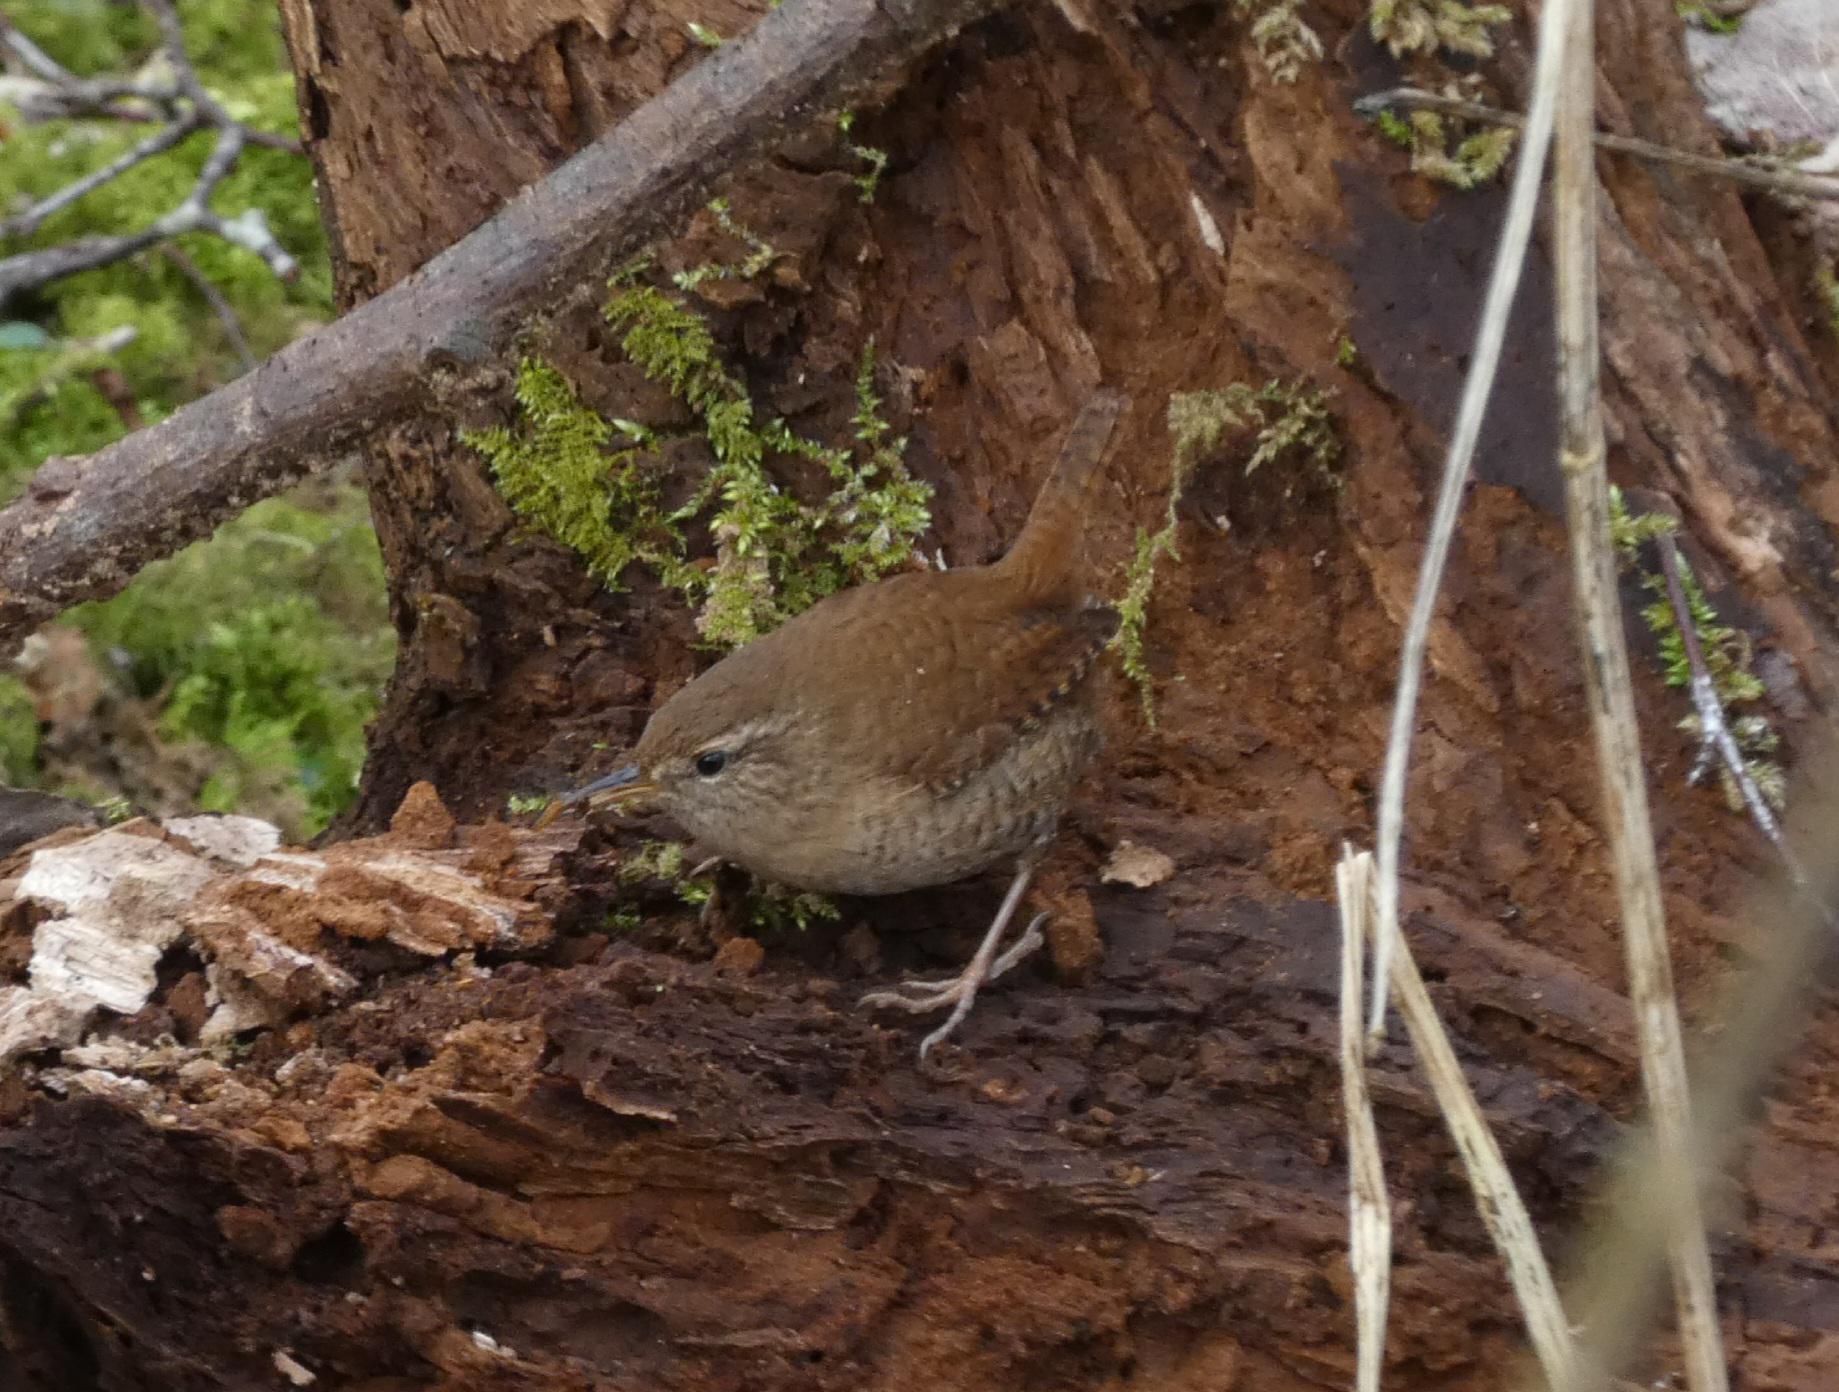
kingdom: Animalia
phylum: Chordata
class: Aves
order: Passeriformes
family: Troglodytidae
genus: Troglodytes
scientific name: Troglodytes troglodytes
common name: Gærdesmutte
